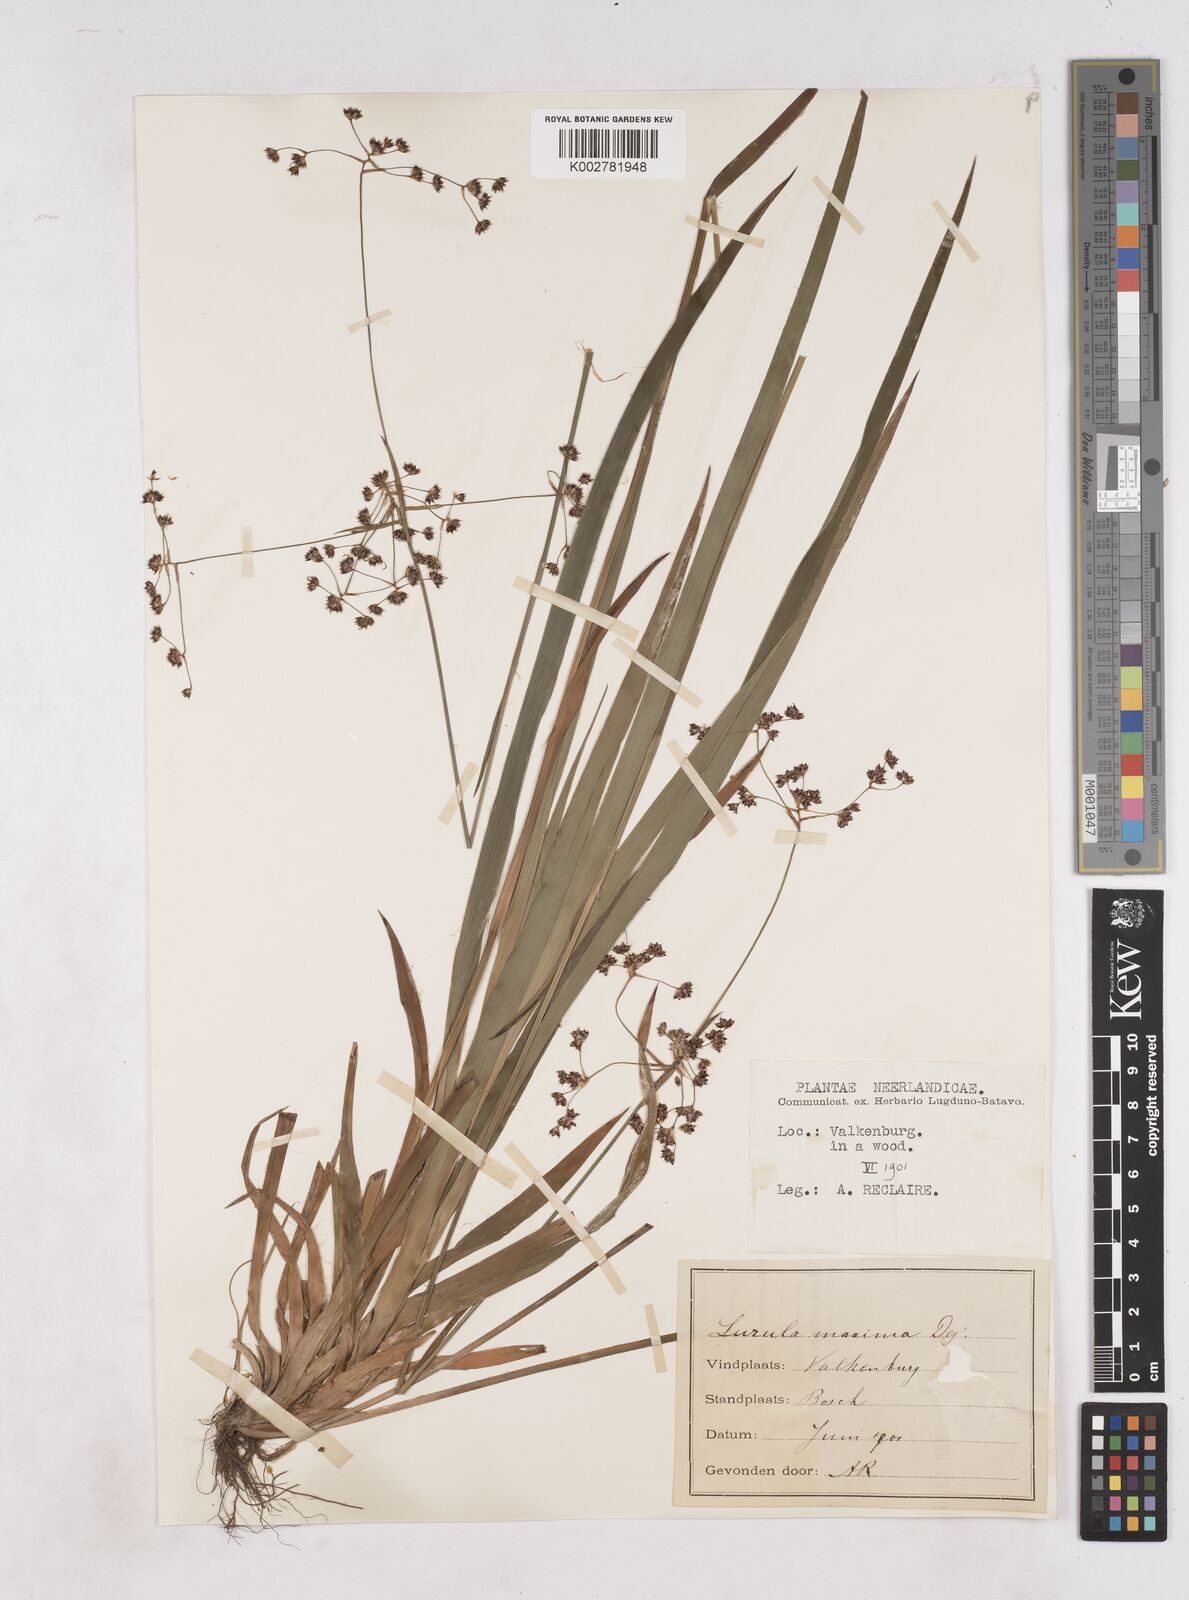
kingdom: Plantae
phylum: Tracheophyta
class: Liliopsida
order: Poales
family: Juncaceae
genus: Luzula
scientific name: Luzula sylvatica
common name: Great wood-rush
